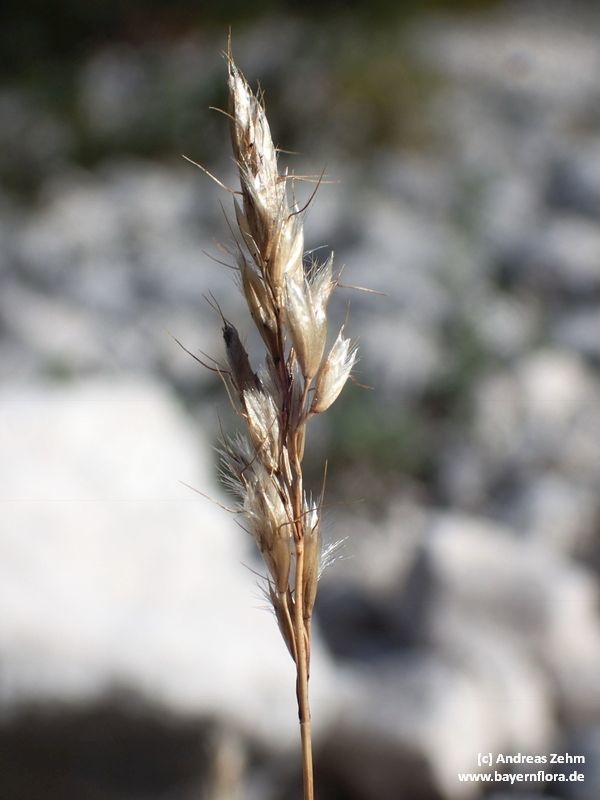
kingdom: Plantae
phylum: Tracheophyta
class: Liliopsida
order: Poales
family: Poaceae
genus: Acrospelion
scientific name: Acrospelion distichophyllum
